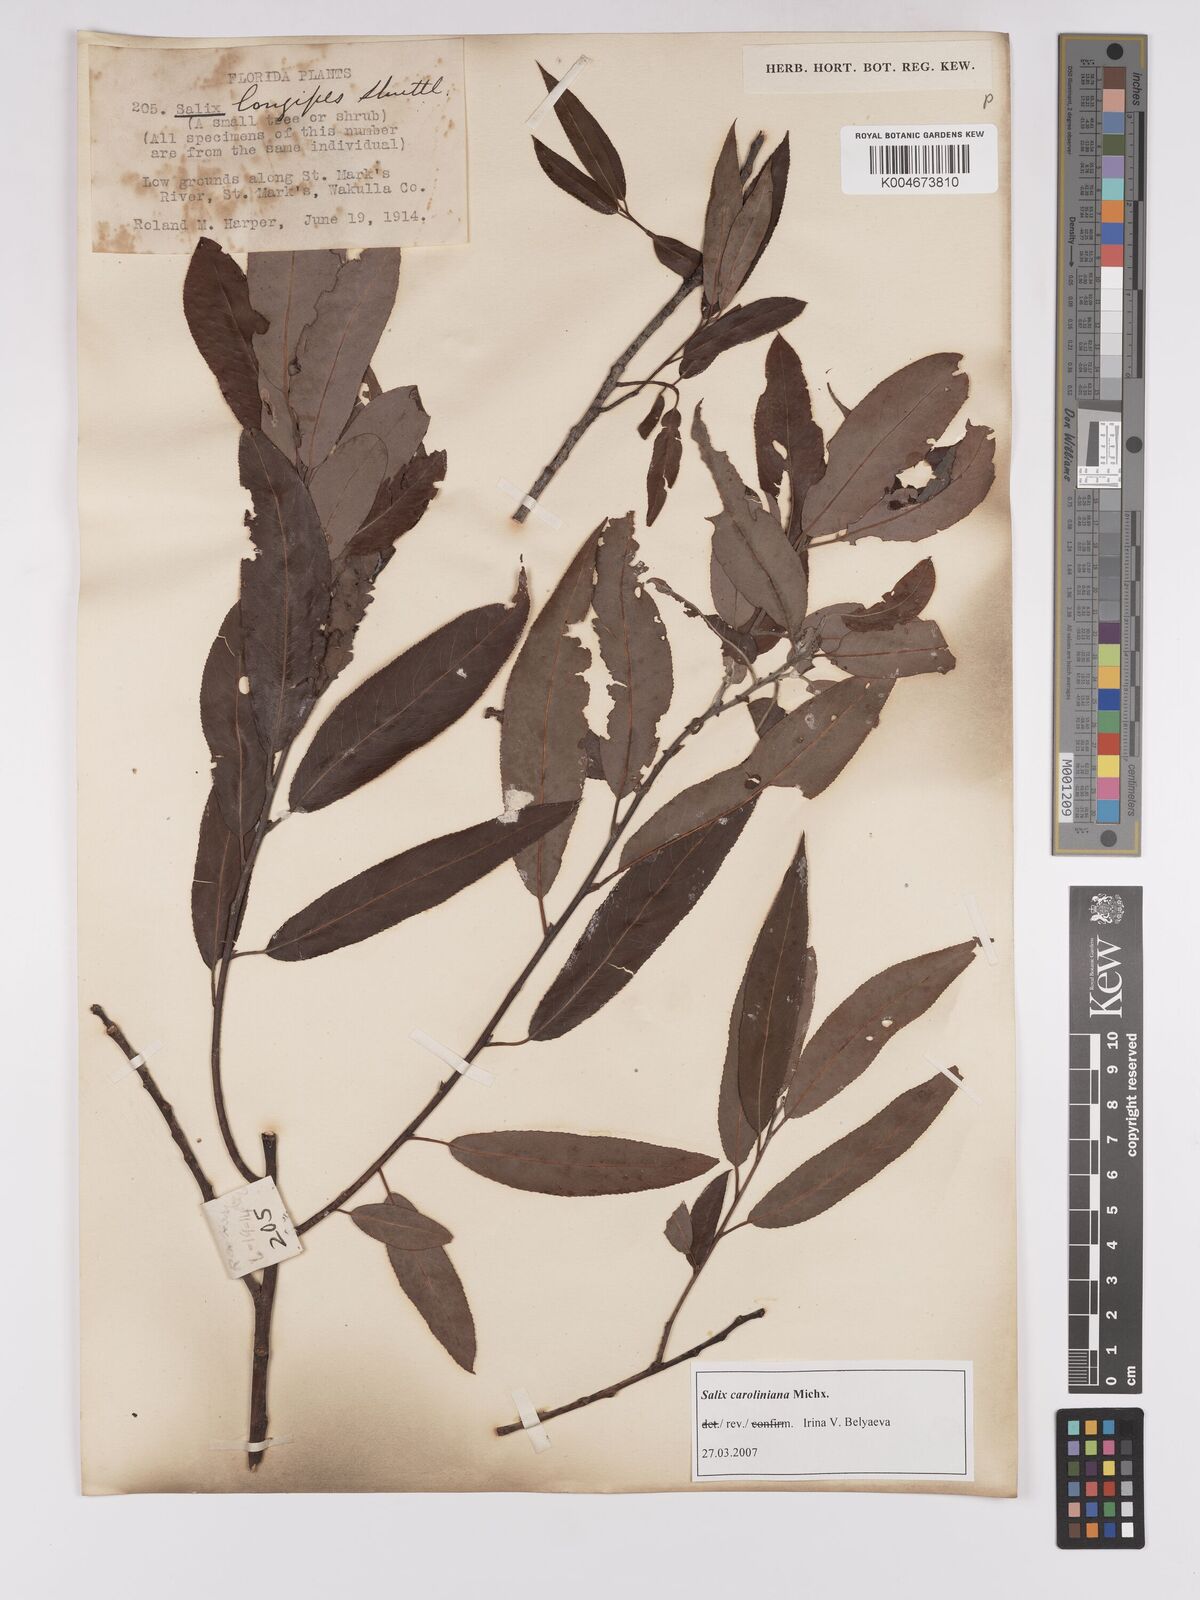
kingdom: Plantae
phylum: Tracheophyta
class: Magnoliopsida
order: Malpighiales
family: Salicaceae
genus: Salix
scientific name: Salix caroliniana
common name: Carolina willow
